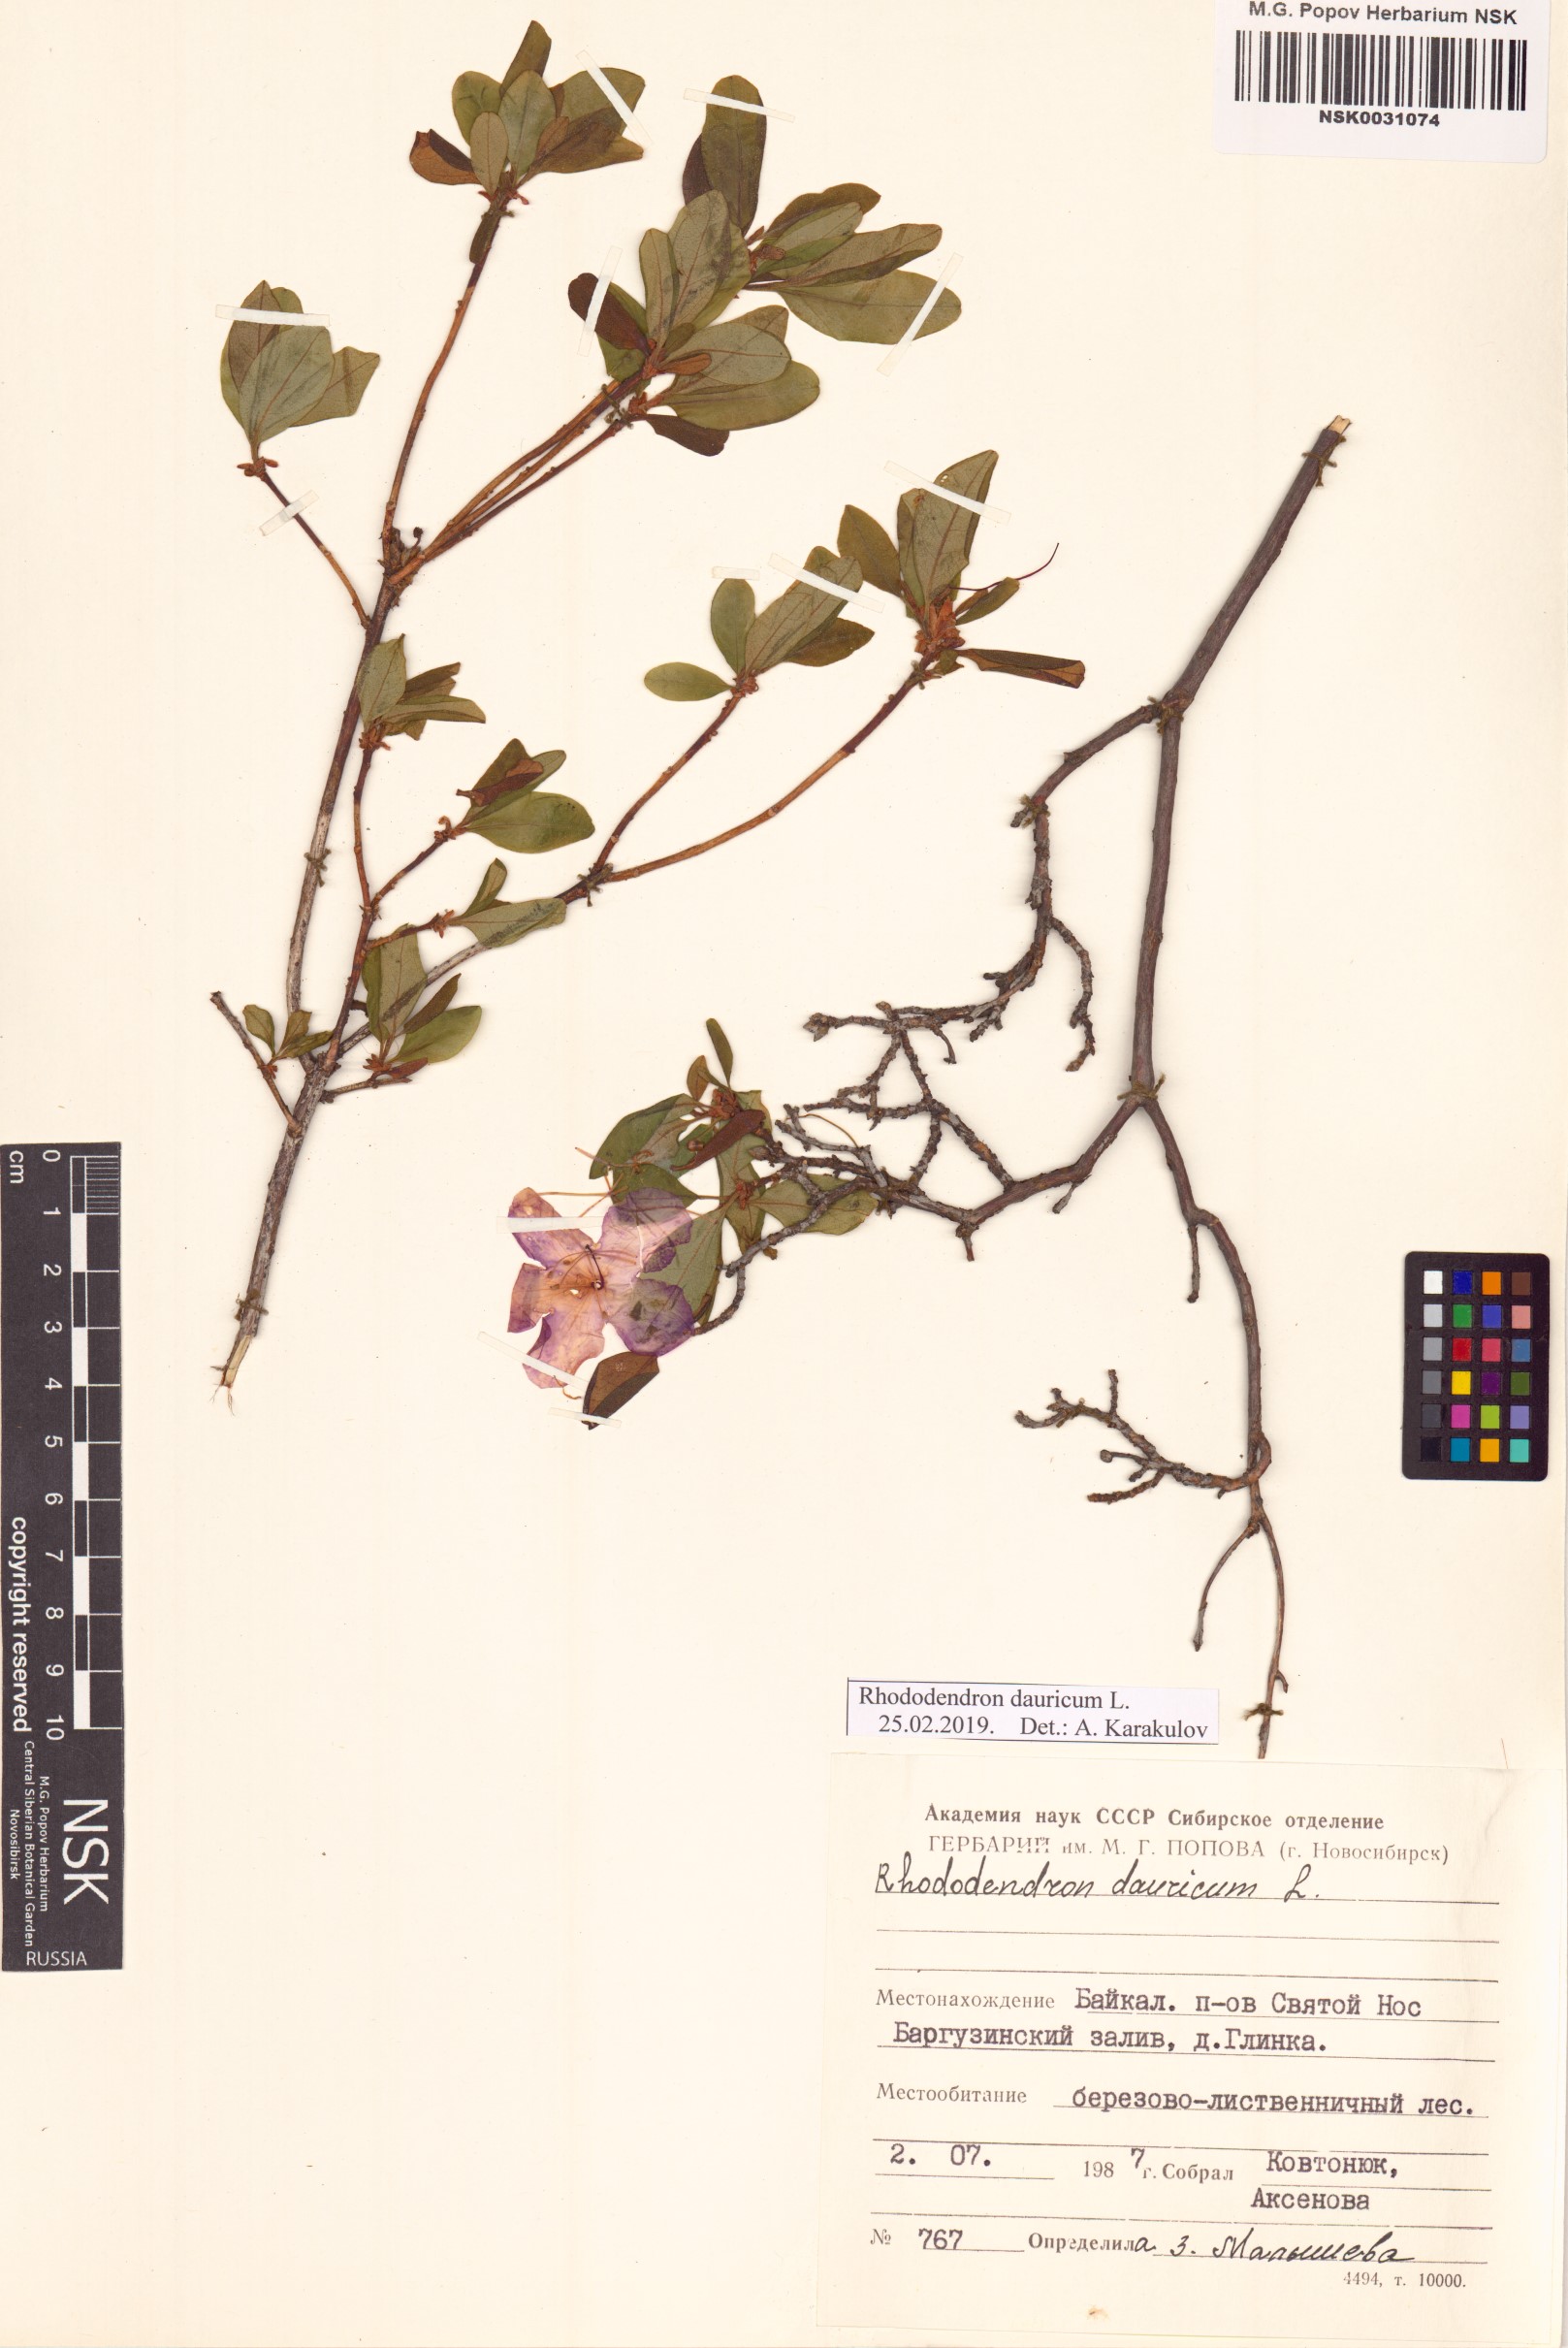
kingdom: Plantae
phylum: Tracheophyta
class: Magnoliopsida
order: Ericales
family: Ericaceae
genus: Rhododendron
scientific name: Rhododendron dauricum
